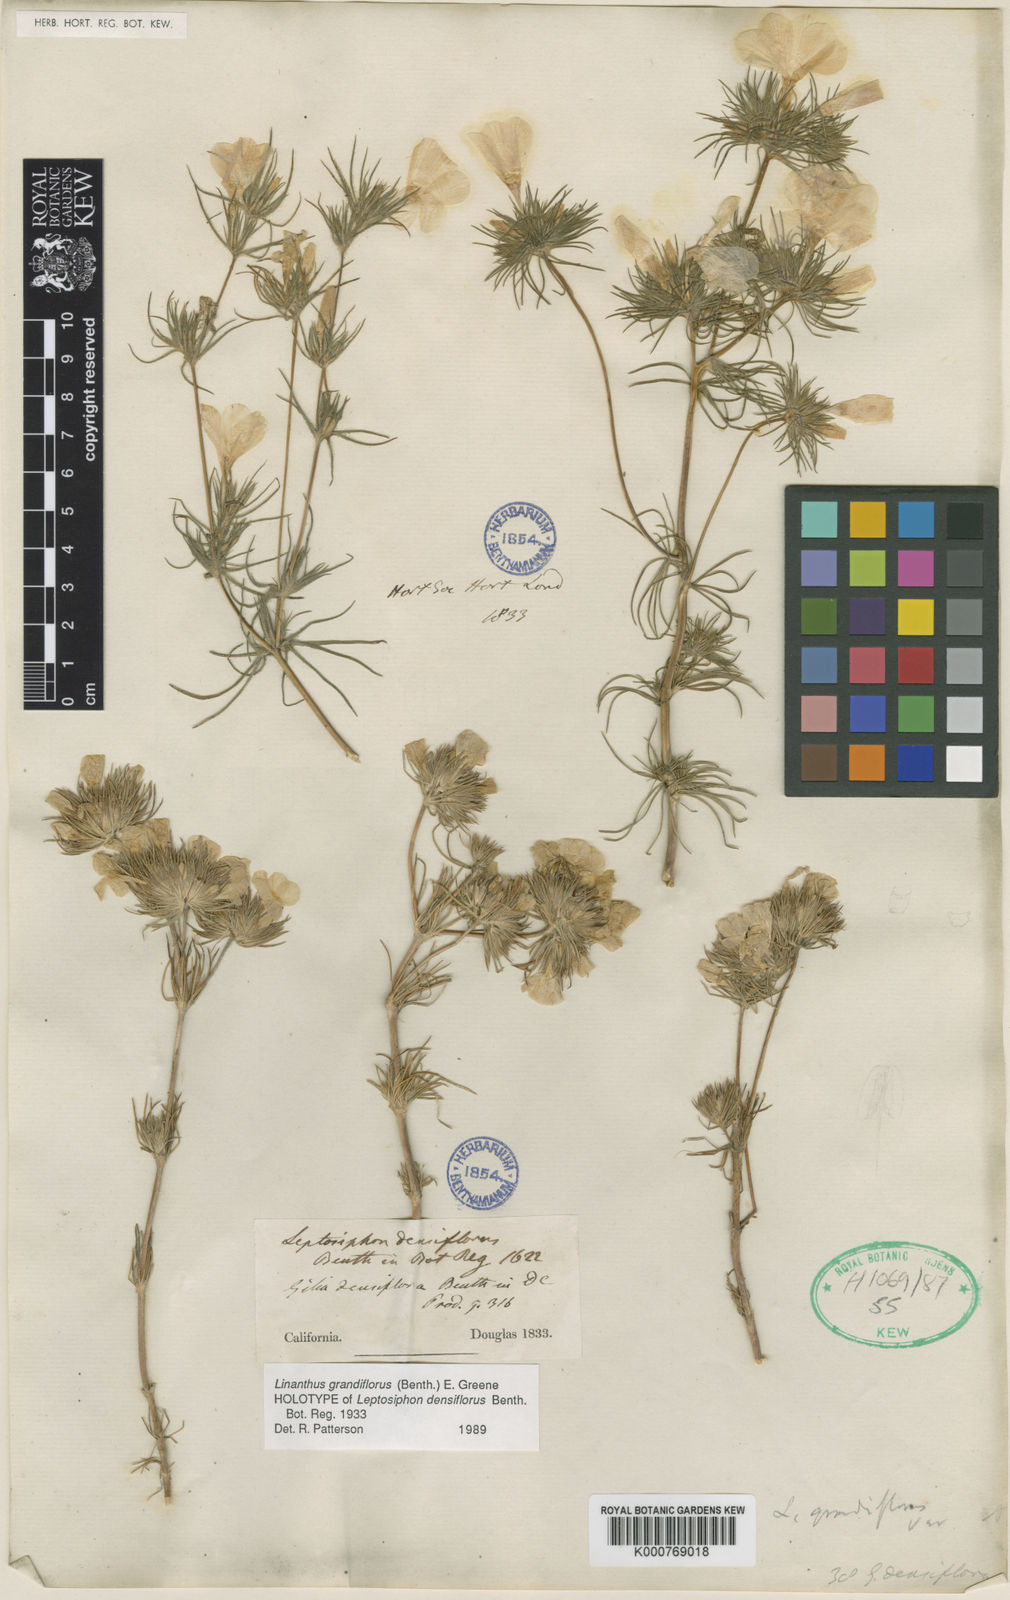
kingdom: Plantae
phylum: Tracheophyta
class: Magnoliopsida
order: Ericales
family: Polemoniaceae
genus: Leptosiphon
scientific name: Leptosiphon grandiflorus
